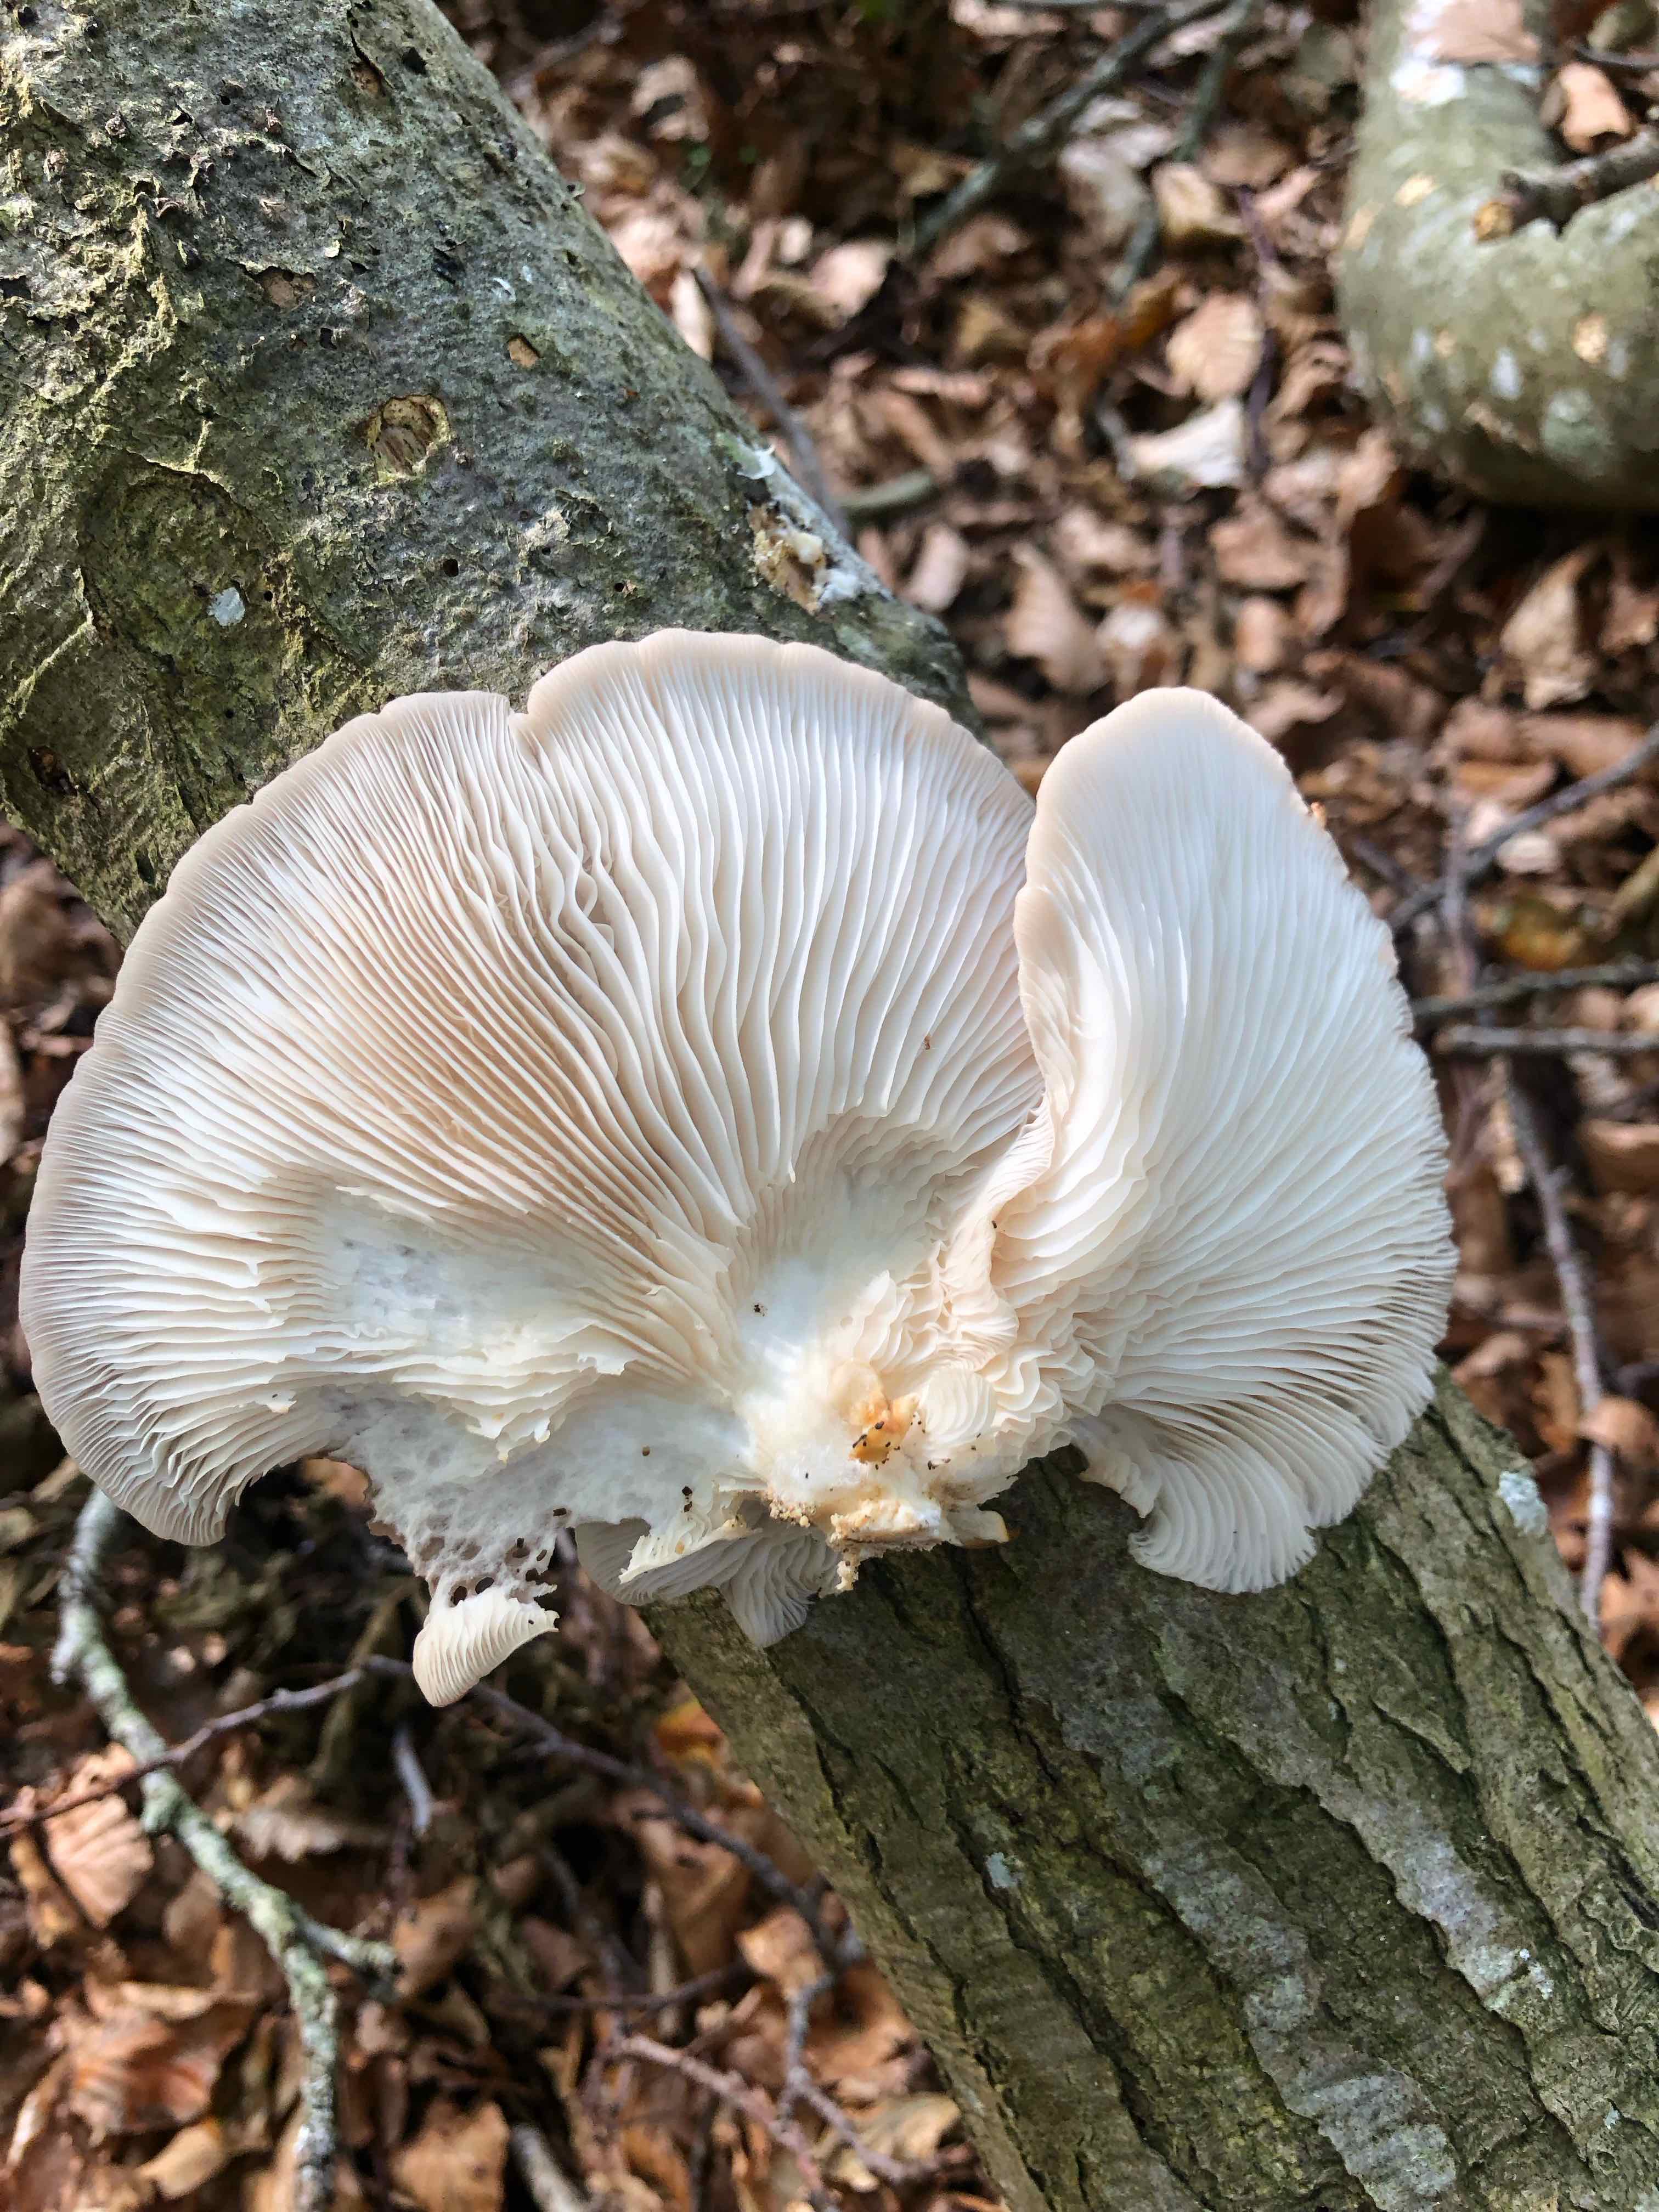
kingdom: Fungi
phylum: Basidiomycota
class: Agaricomycetes
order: Agaricales
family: Pleurotaceae
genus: Pleurotus
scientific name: Pleurotus pulmonarius
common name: sommer-østershat
